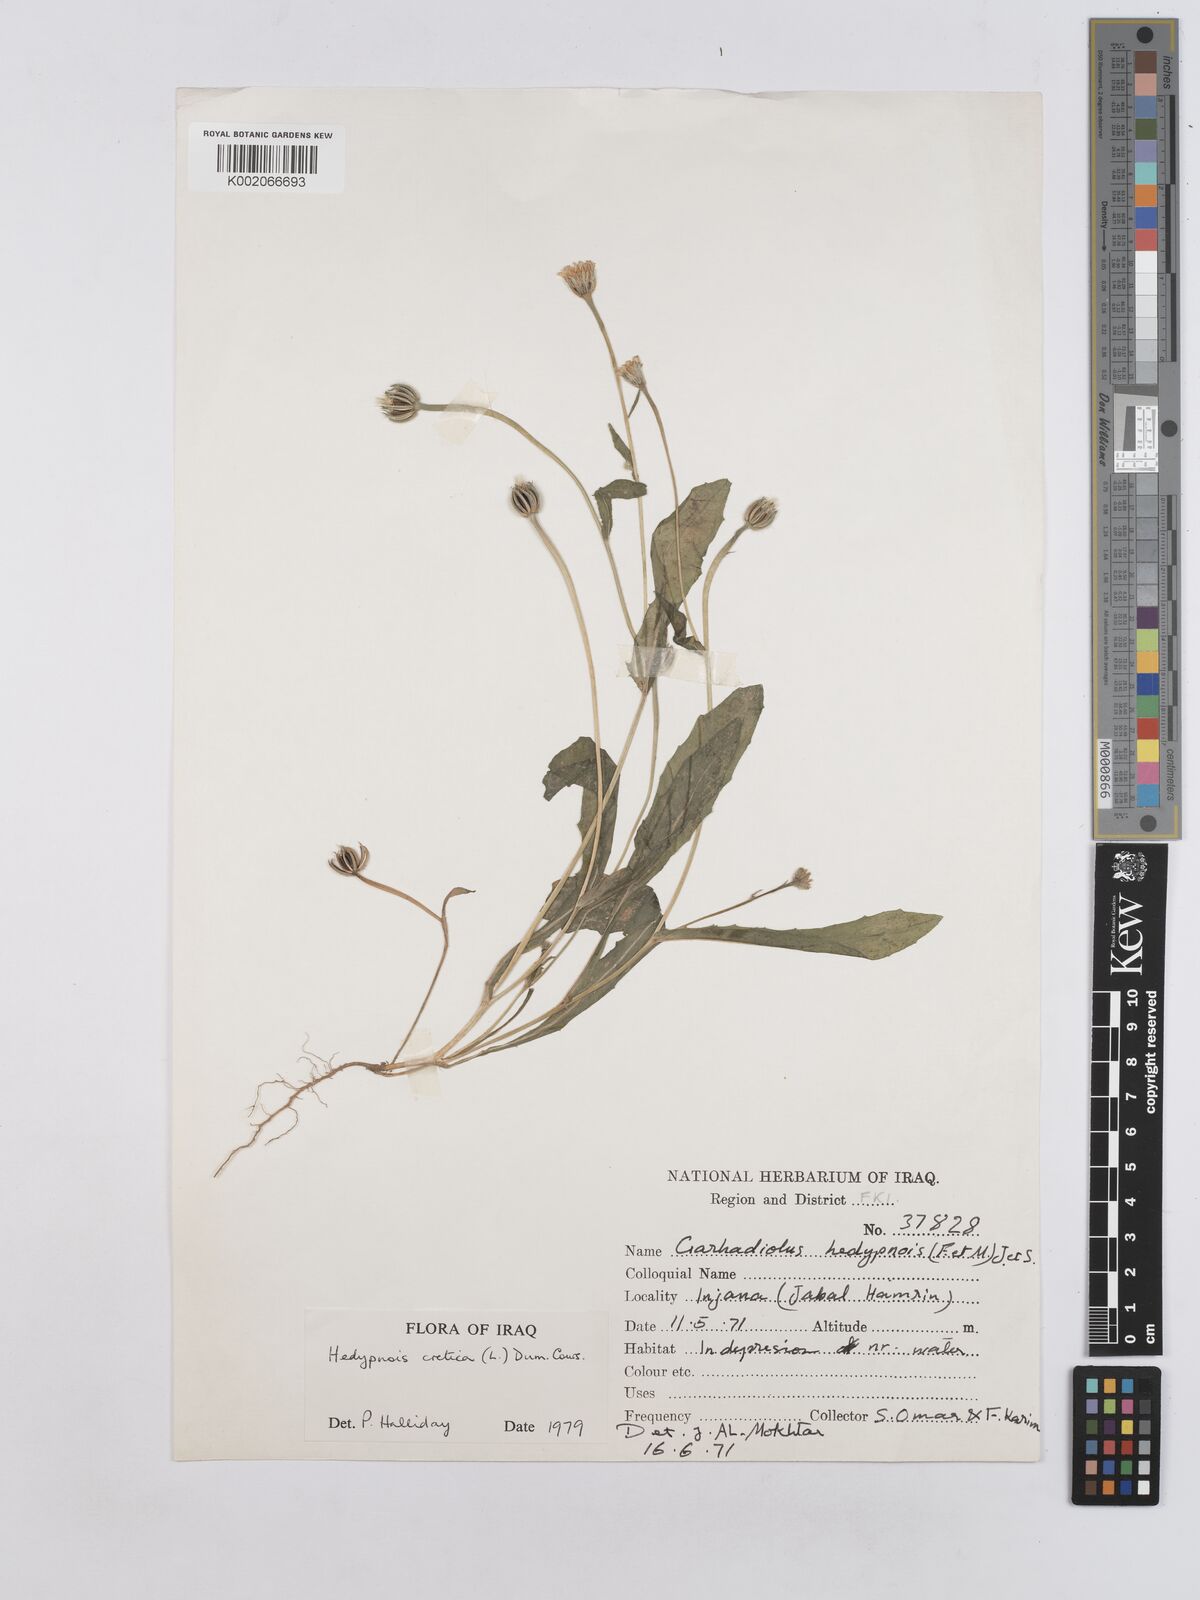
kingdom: Plantae
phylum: Tracheophyta
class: Magnoliopsida
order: Asterales
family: Asteraceae
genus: Hedypnois
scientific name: Hedypnois cretica
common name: Scaly hawkbit
